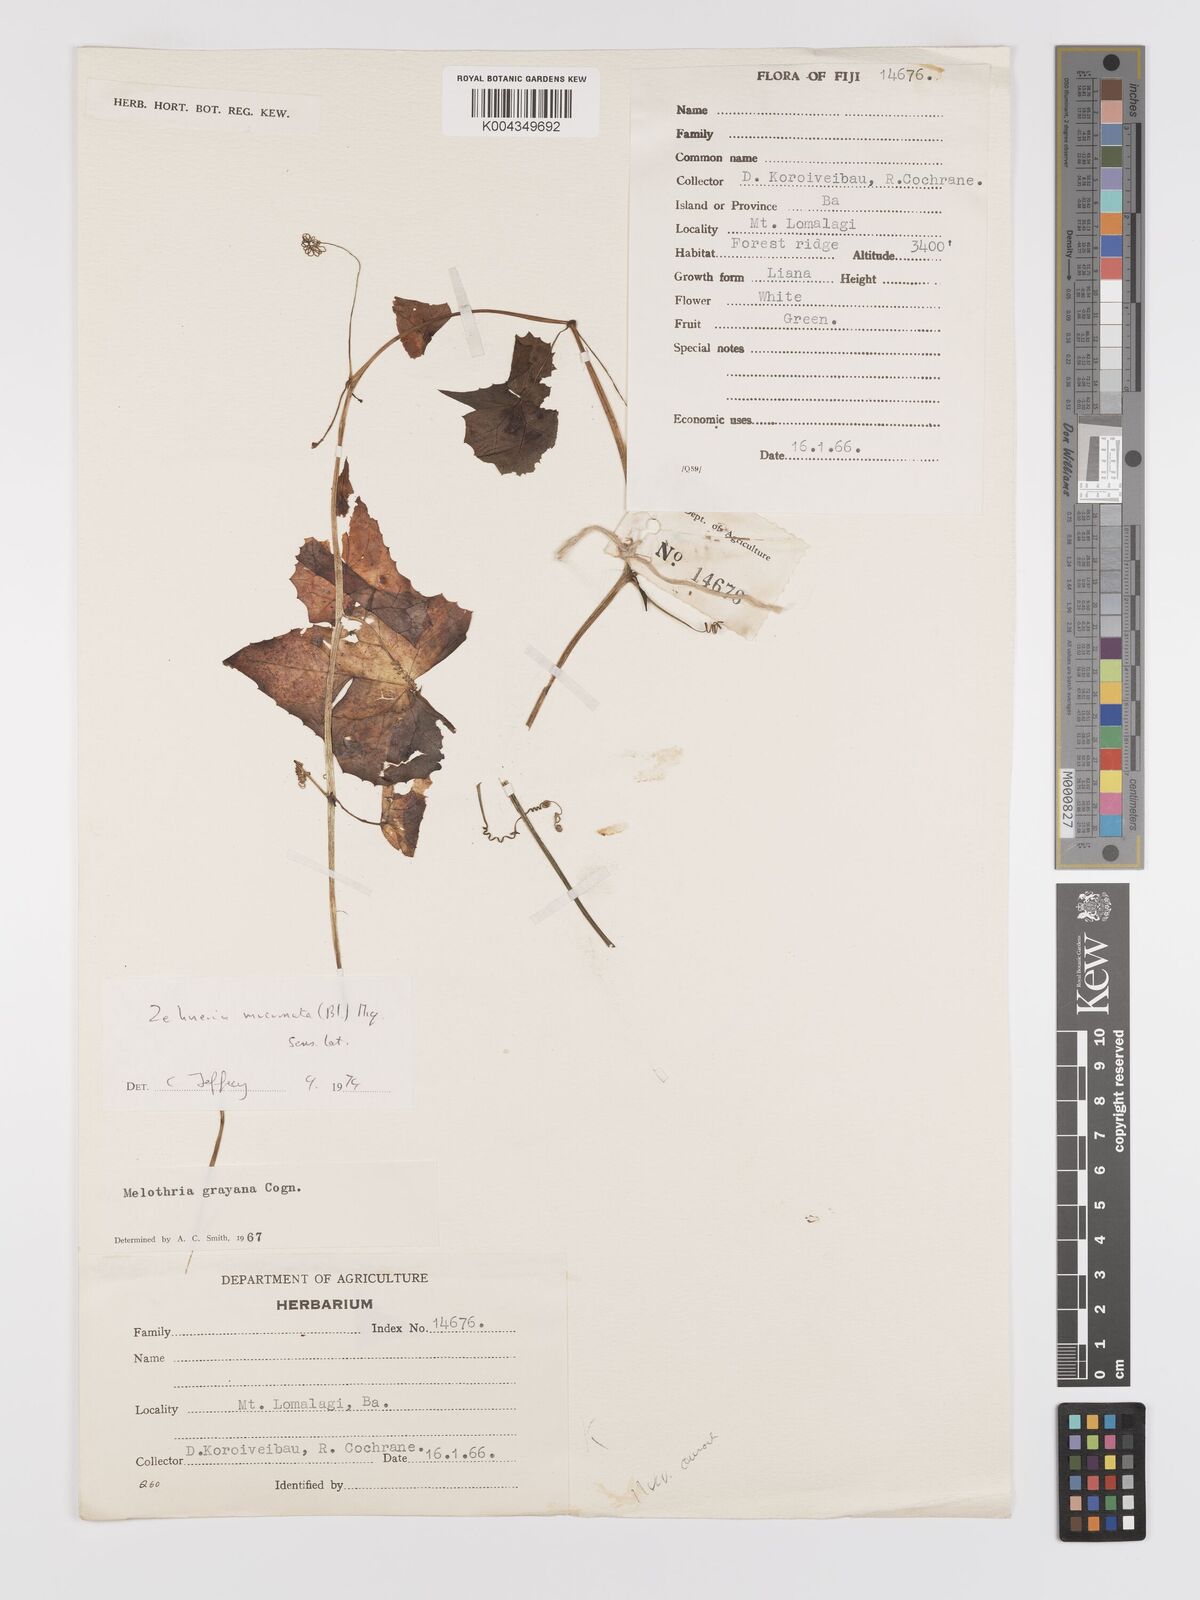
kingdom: Plantae
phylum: Tracheophyta
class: Magnoliopsida
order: Cucurbitales
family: Cucurbitaceae
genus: Zehneria
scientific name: Zehneria mucronata
